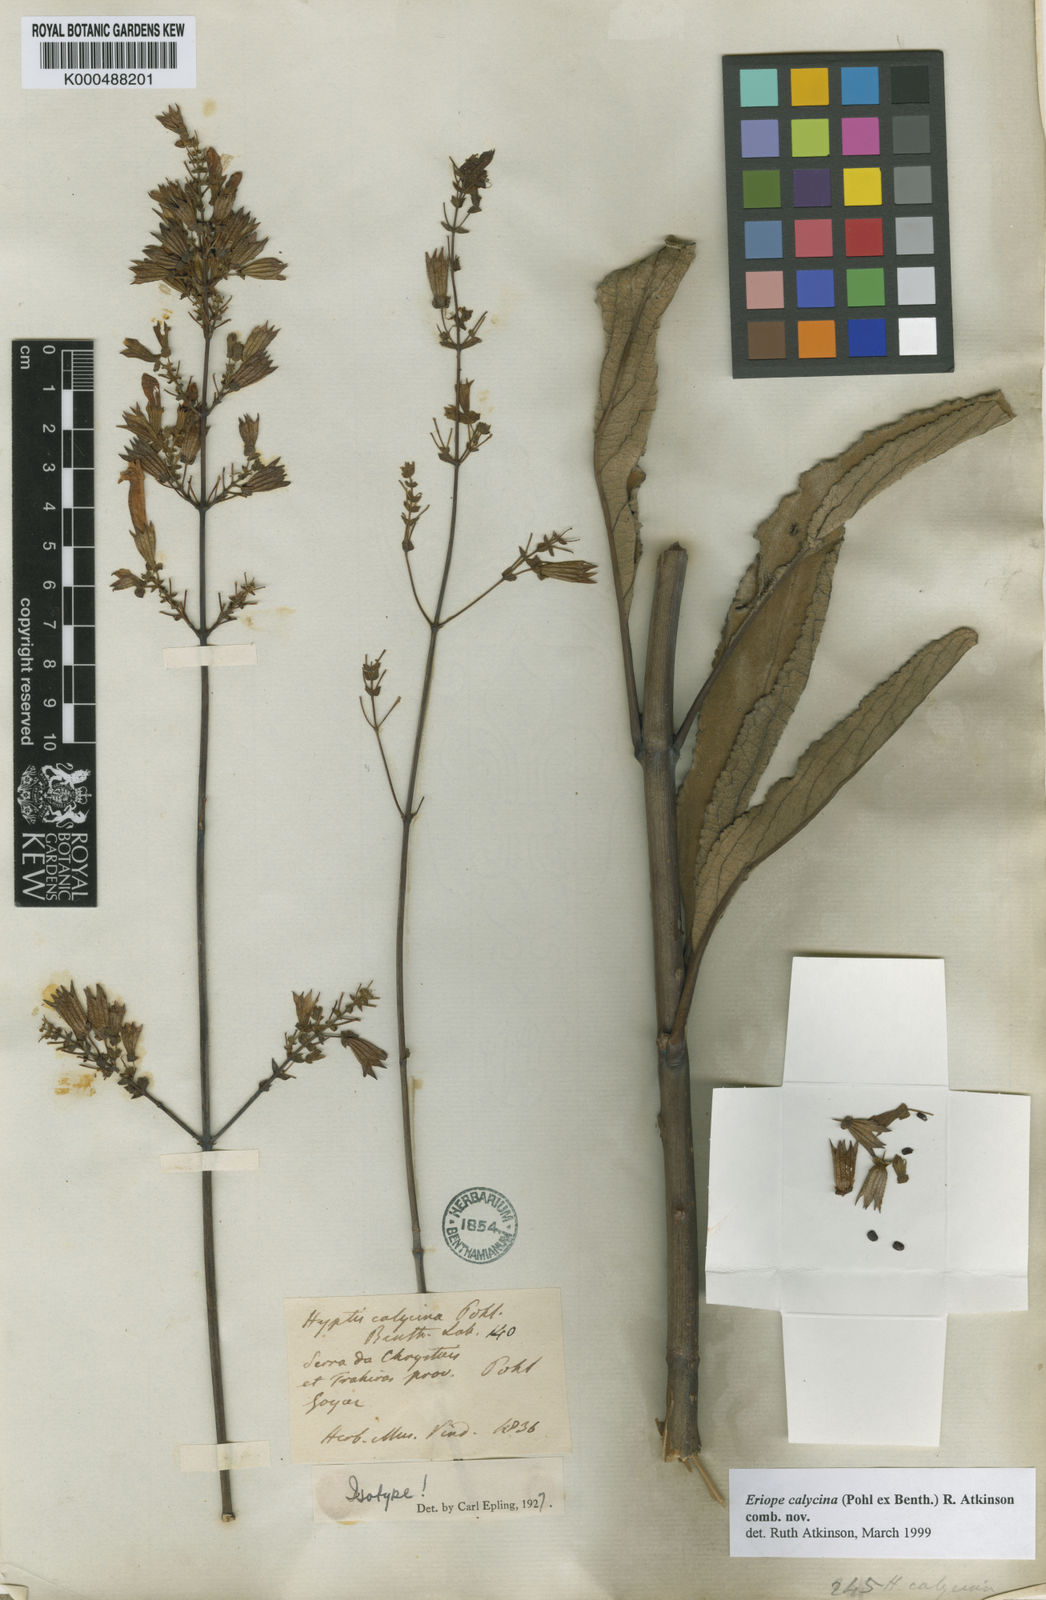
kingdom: Plantae
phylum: Tracheophyta
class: Magnoliopsida
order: Lamiales
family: Lamiaceae
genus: Hypenia
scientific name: Hypenia calycina
